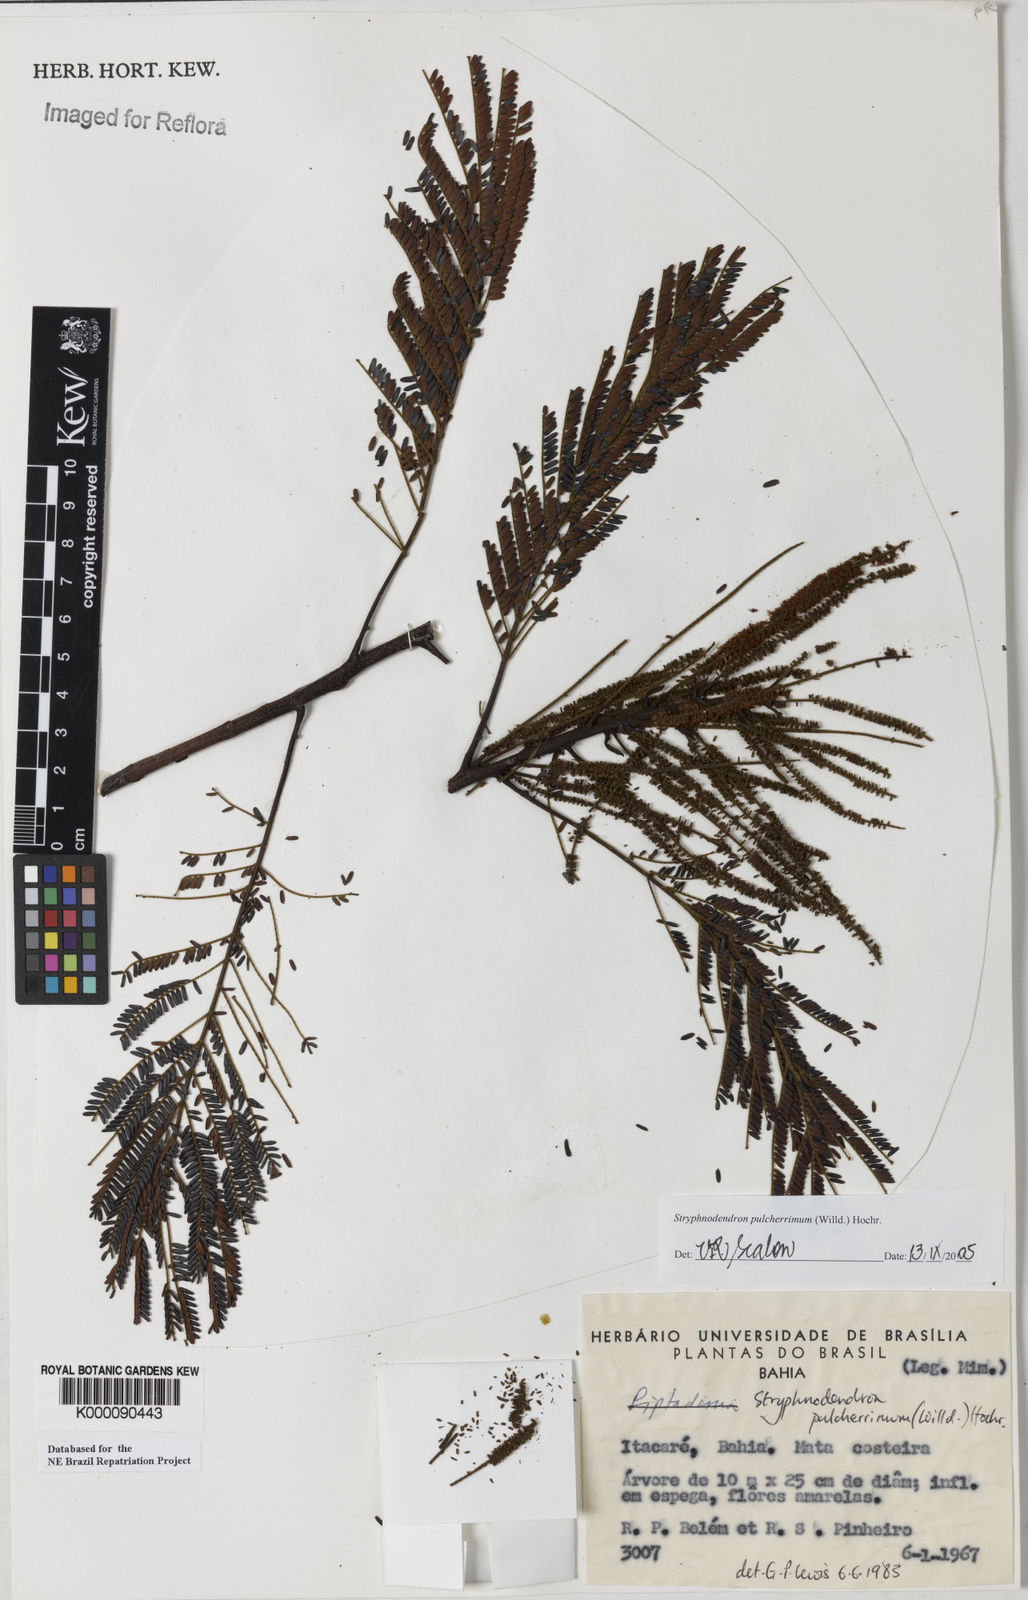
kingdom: Plantae
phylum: Tracheophyta
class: Magnoliopsida
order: Fabales
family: Fabaceae
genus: Stryphnodendron
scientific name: Stryphnodendron pulcherrimum
